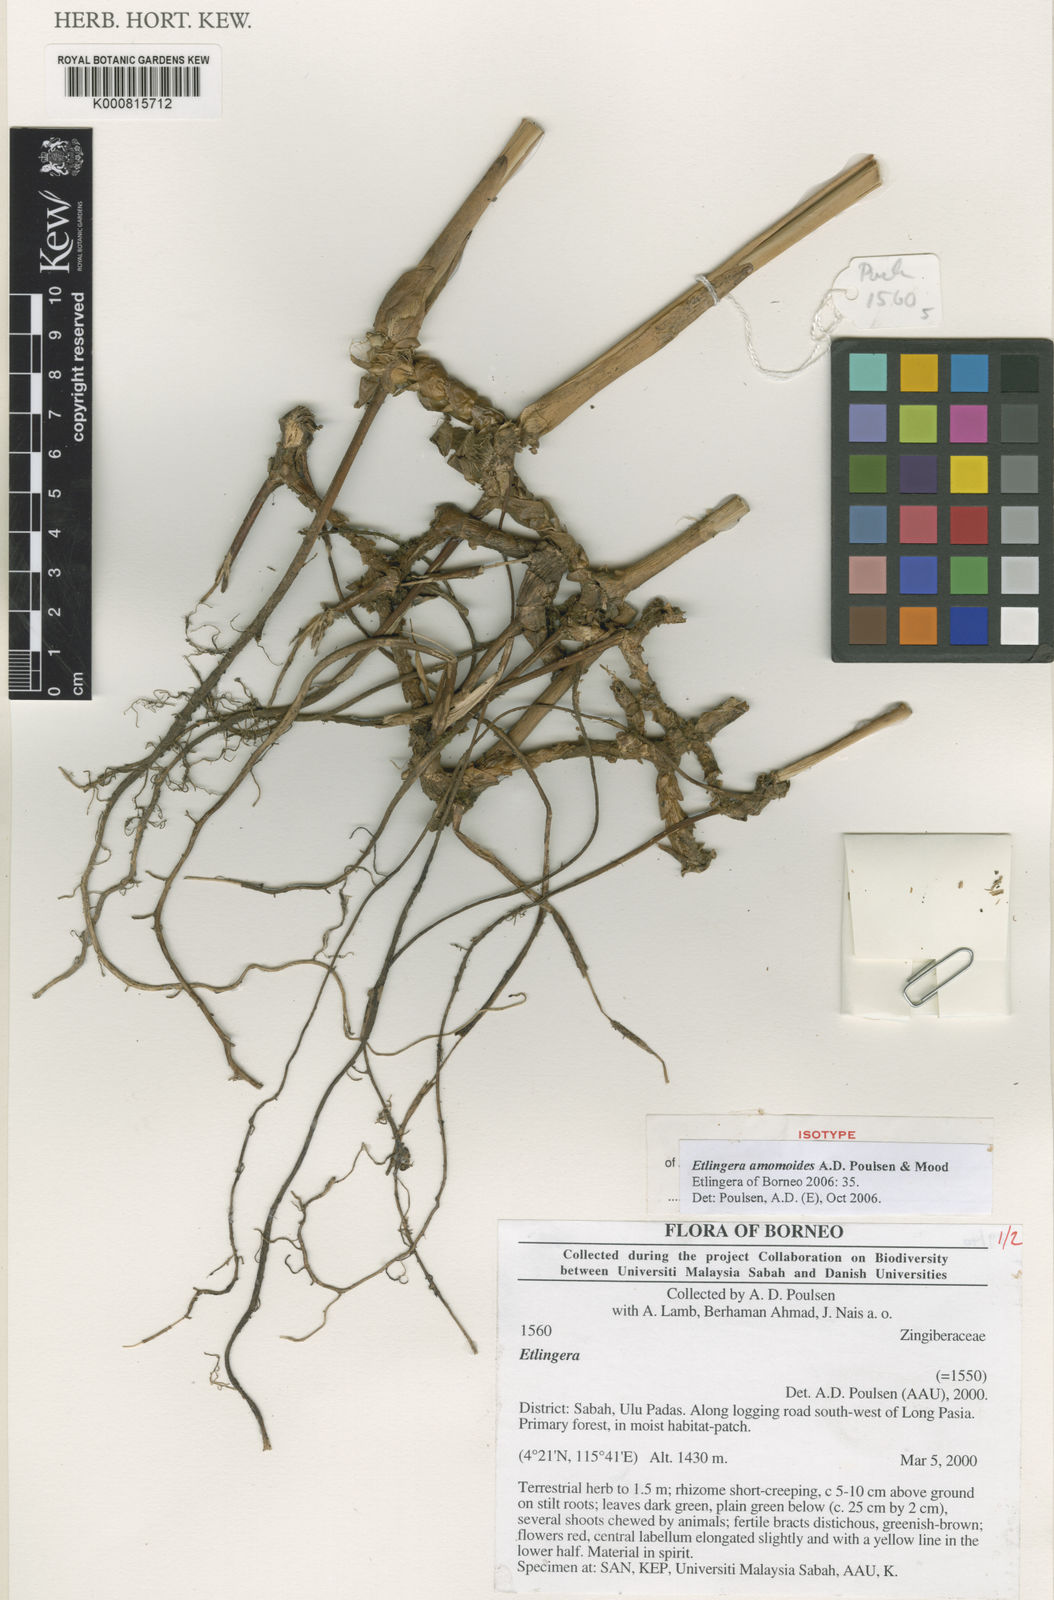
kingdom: Plantae
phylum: Tracheophyta
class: Liliopsida
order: Zingiberales
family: Zingiberaceae
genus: Etlingera
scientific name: Etlingera amomoides
